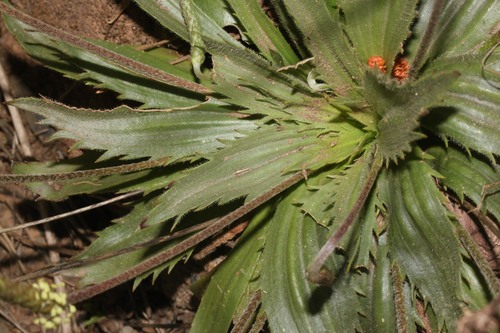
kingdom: Plantae
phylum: Tracheophyta
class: Magnoliopsida
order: Lamiales
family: Plantaginaceae
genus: Plantago
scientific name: Plantago serraria
